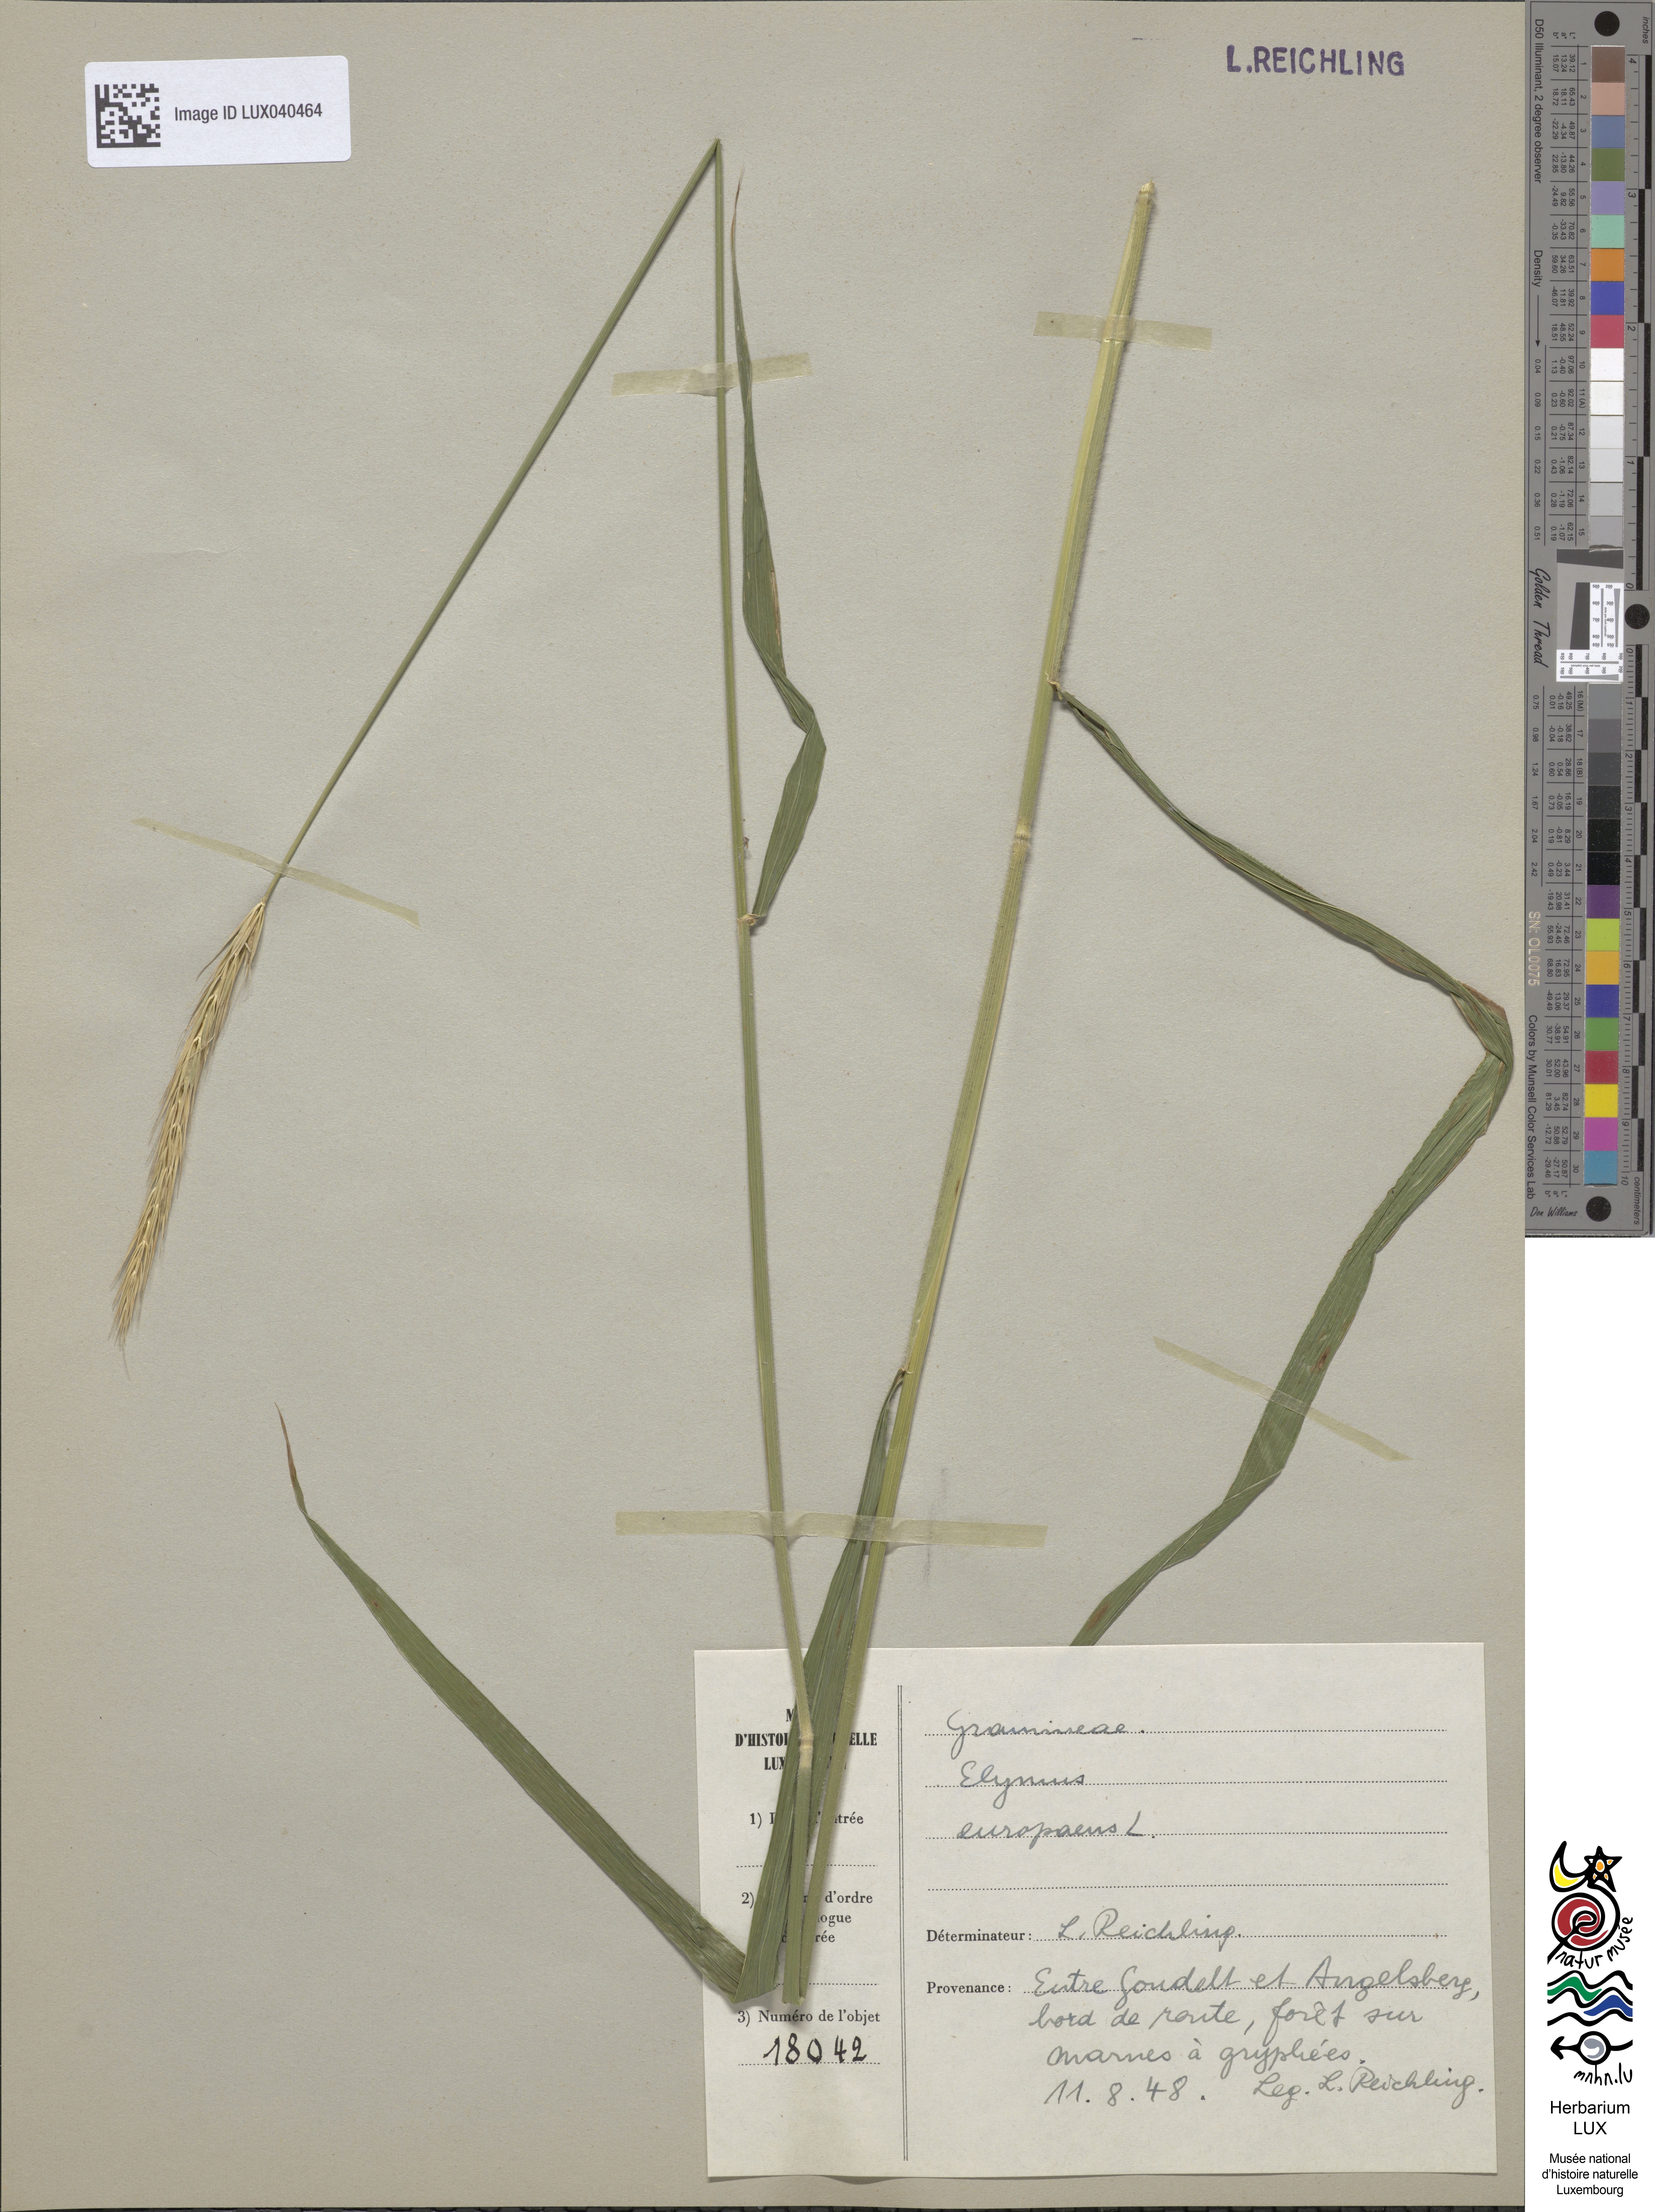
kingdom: Plantae
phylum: Tracheophyta
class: Liliopsida
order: Poales
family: Poaceae
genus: Hordelymus
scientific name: Hordelymus europaeus
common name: Wood-barley
